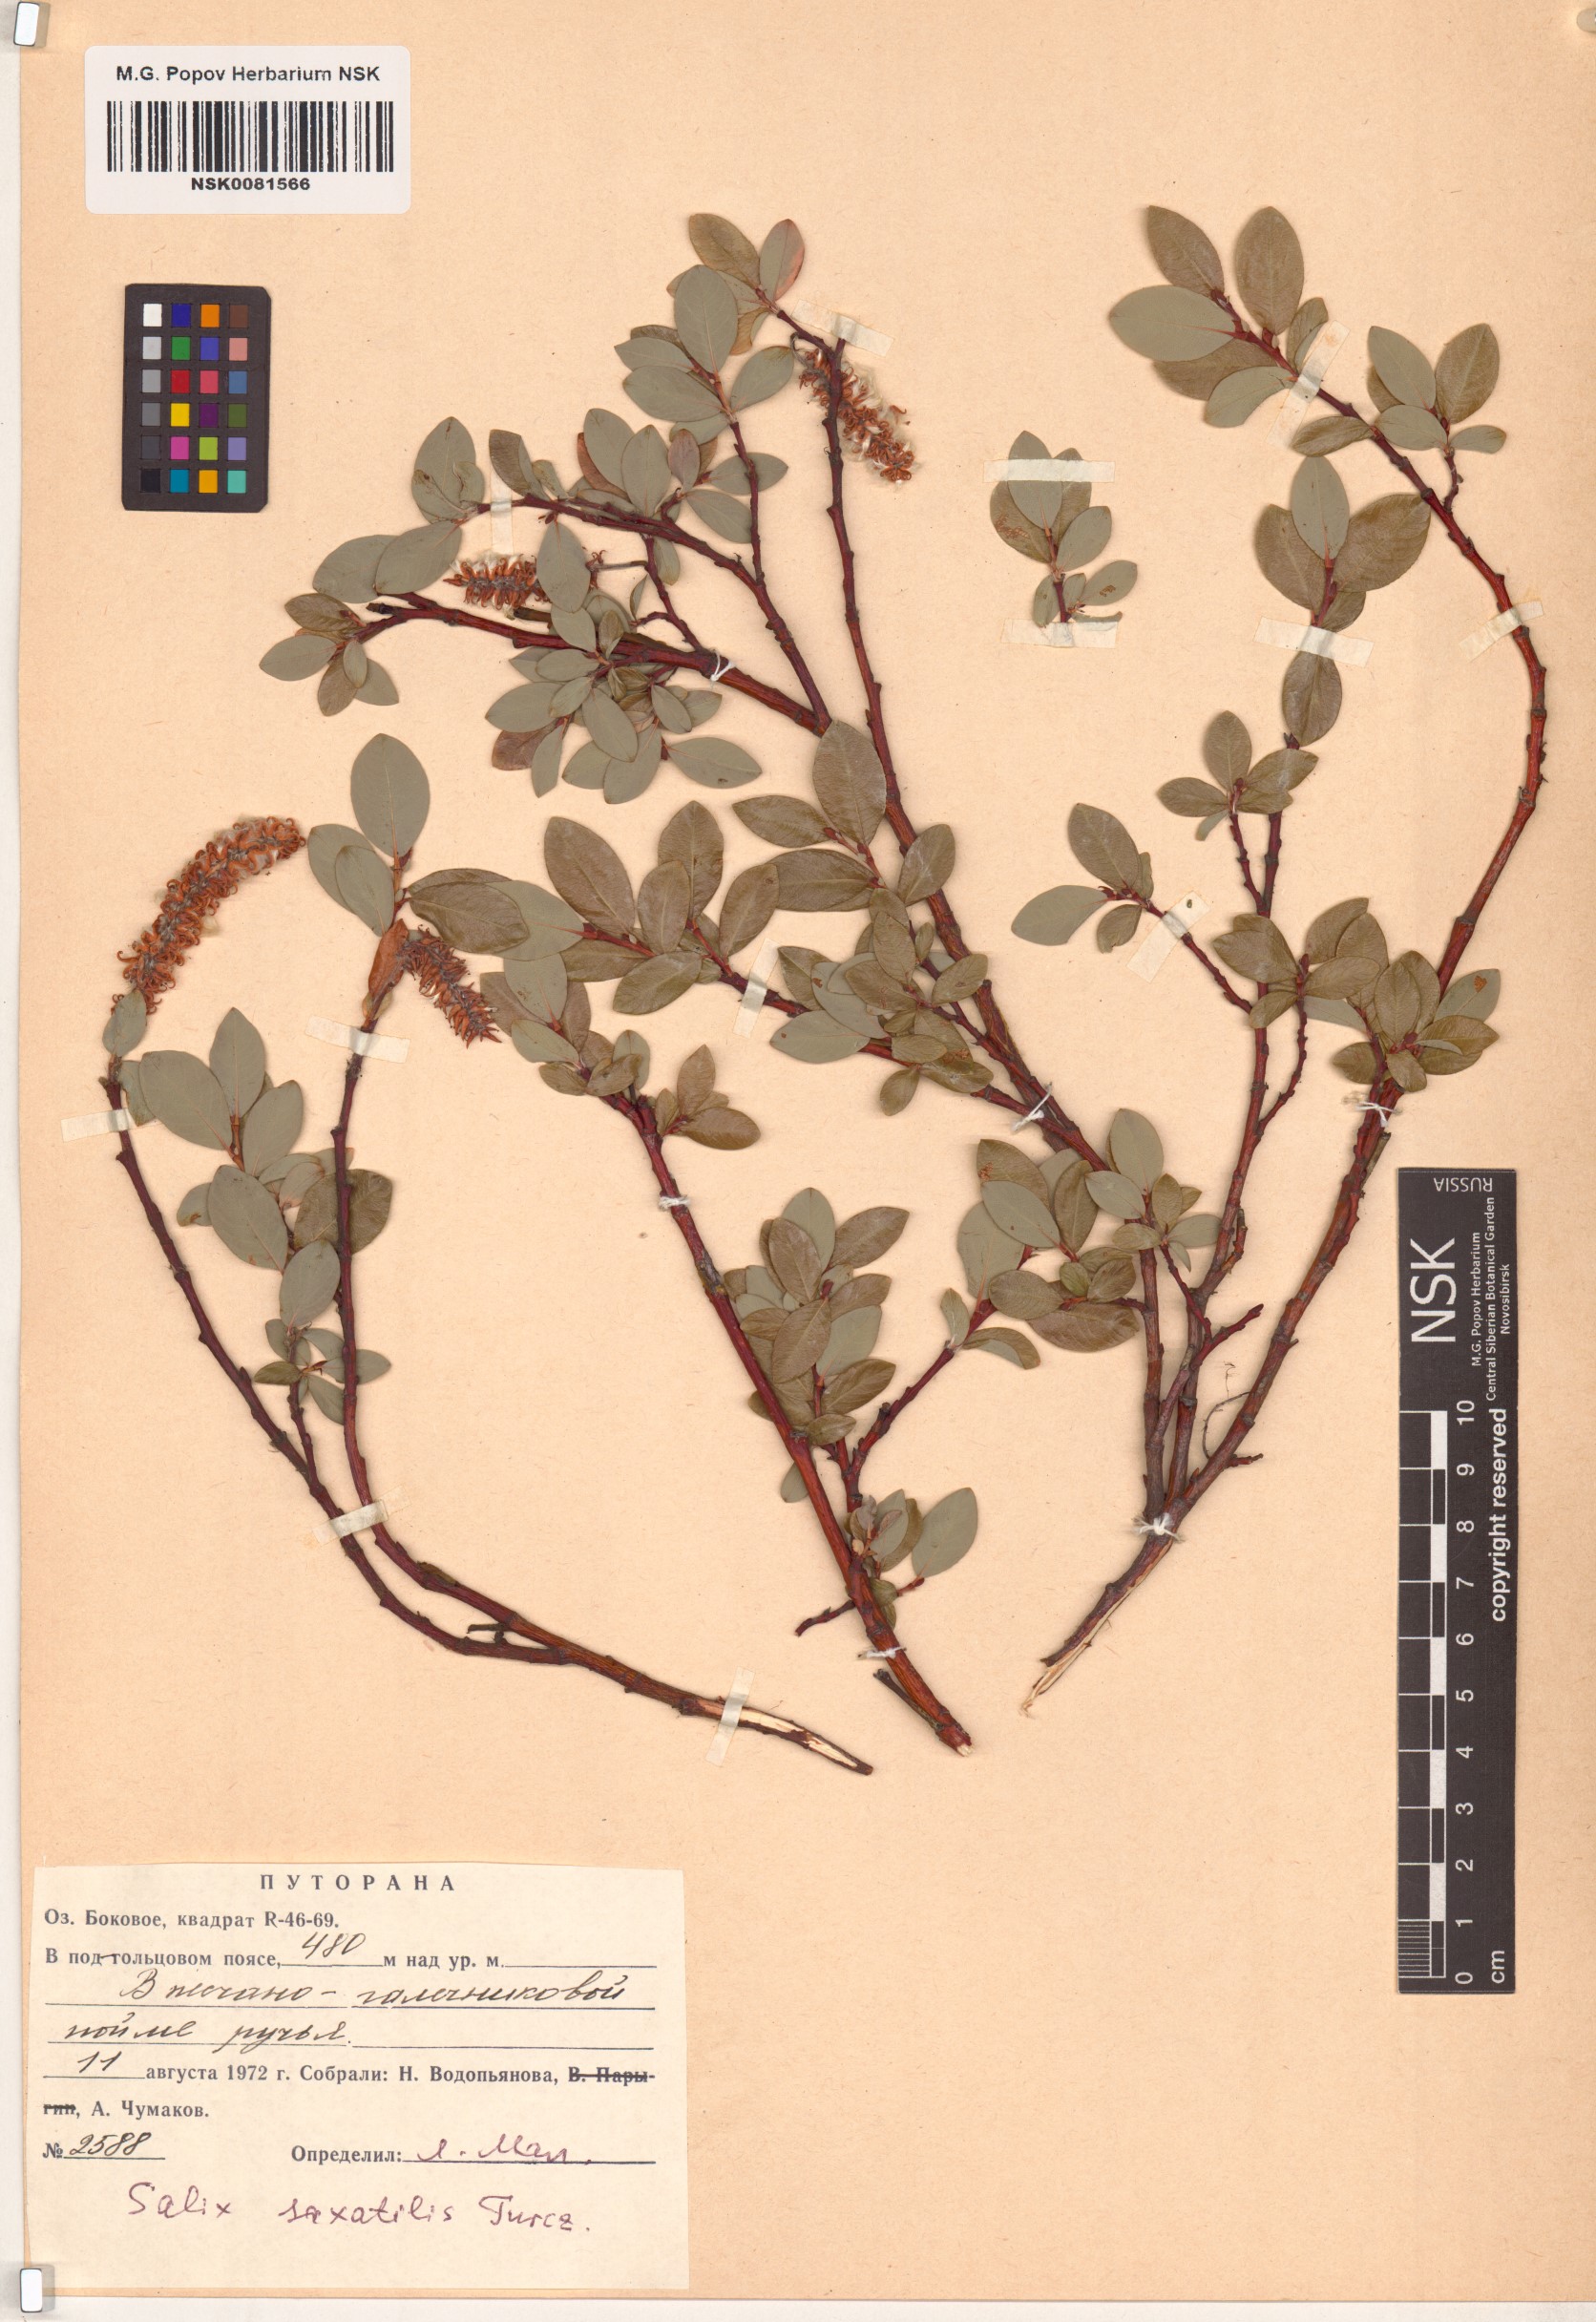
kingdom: Plantae
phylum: Tracheophyta
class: Magnoliopsida
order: Malpighiales
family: Salicaceae
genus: Salix
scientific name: Salix saxatilis
